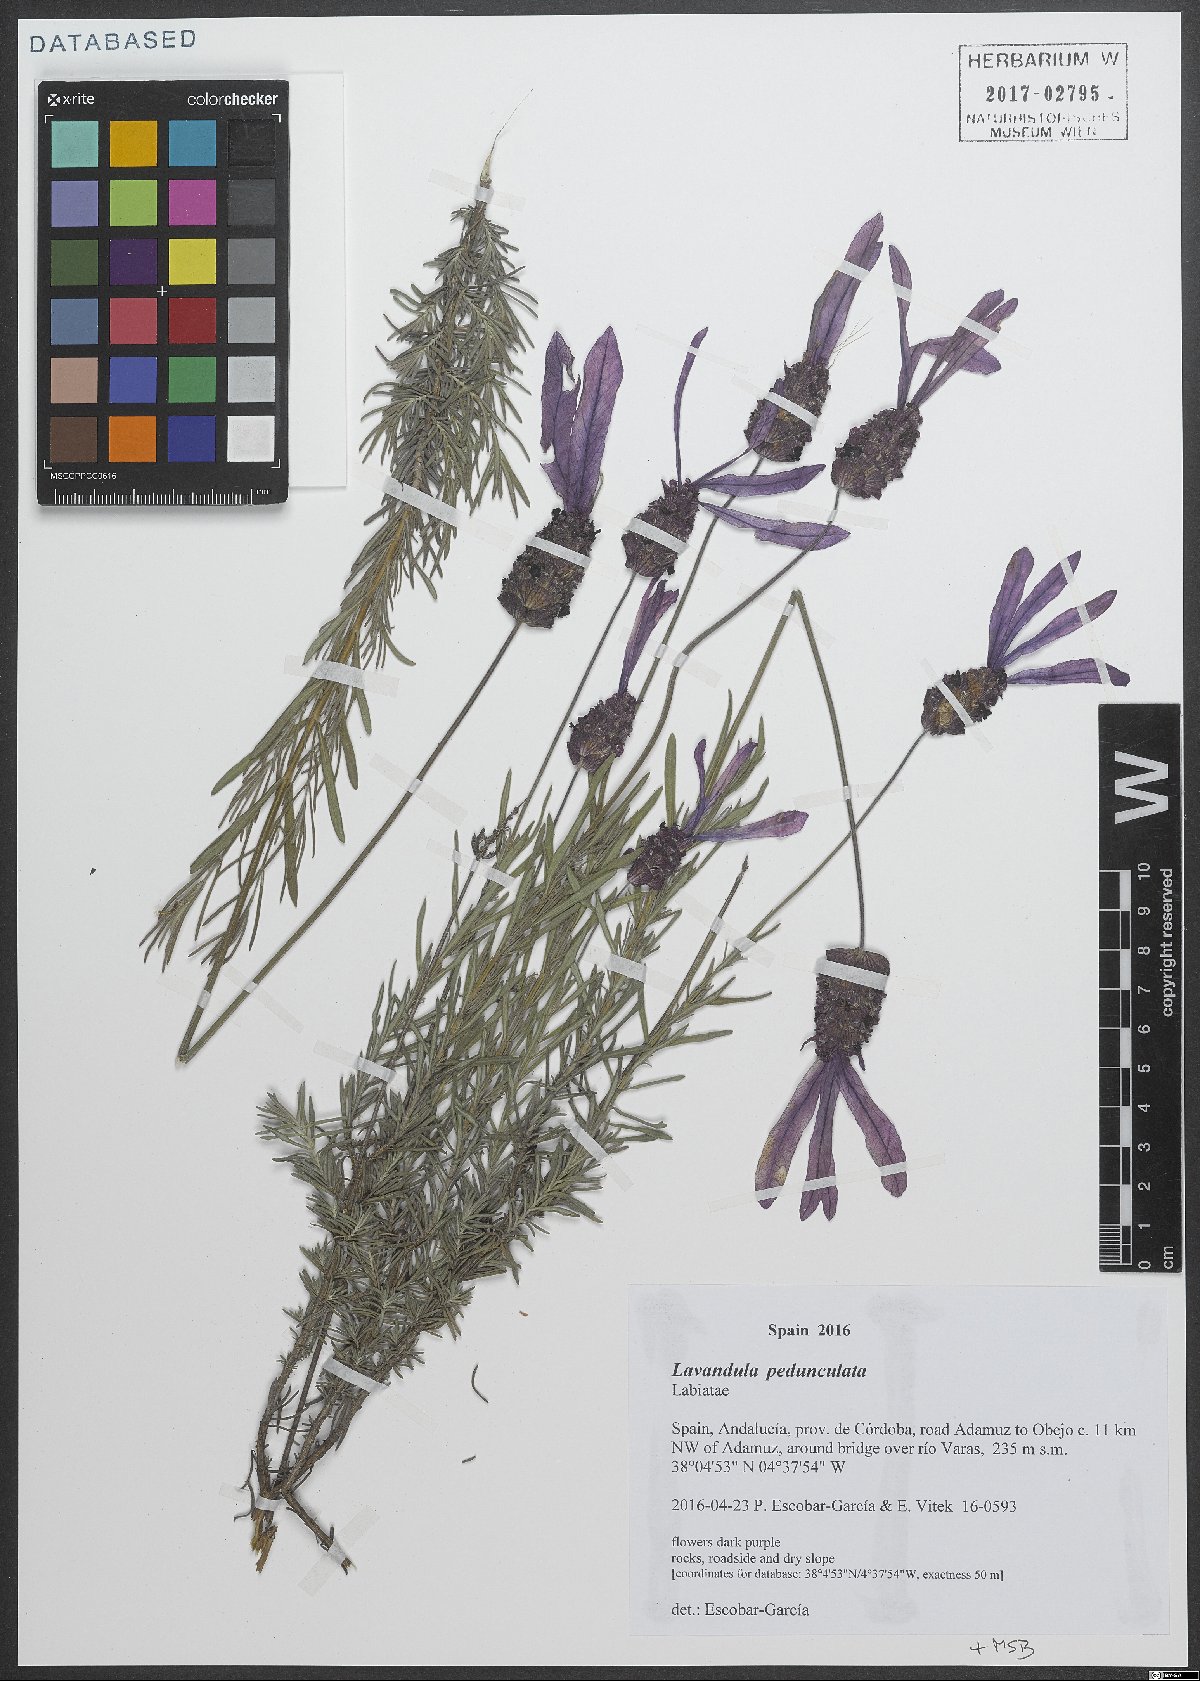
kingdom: Plantae
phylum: Tracheophyta
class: Magnoliopsida
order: Lamiales
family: Lamiaceae
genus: Lavandula
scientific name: Lavandula pedunculata
